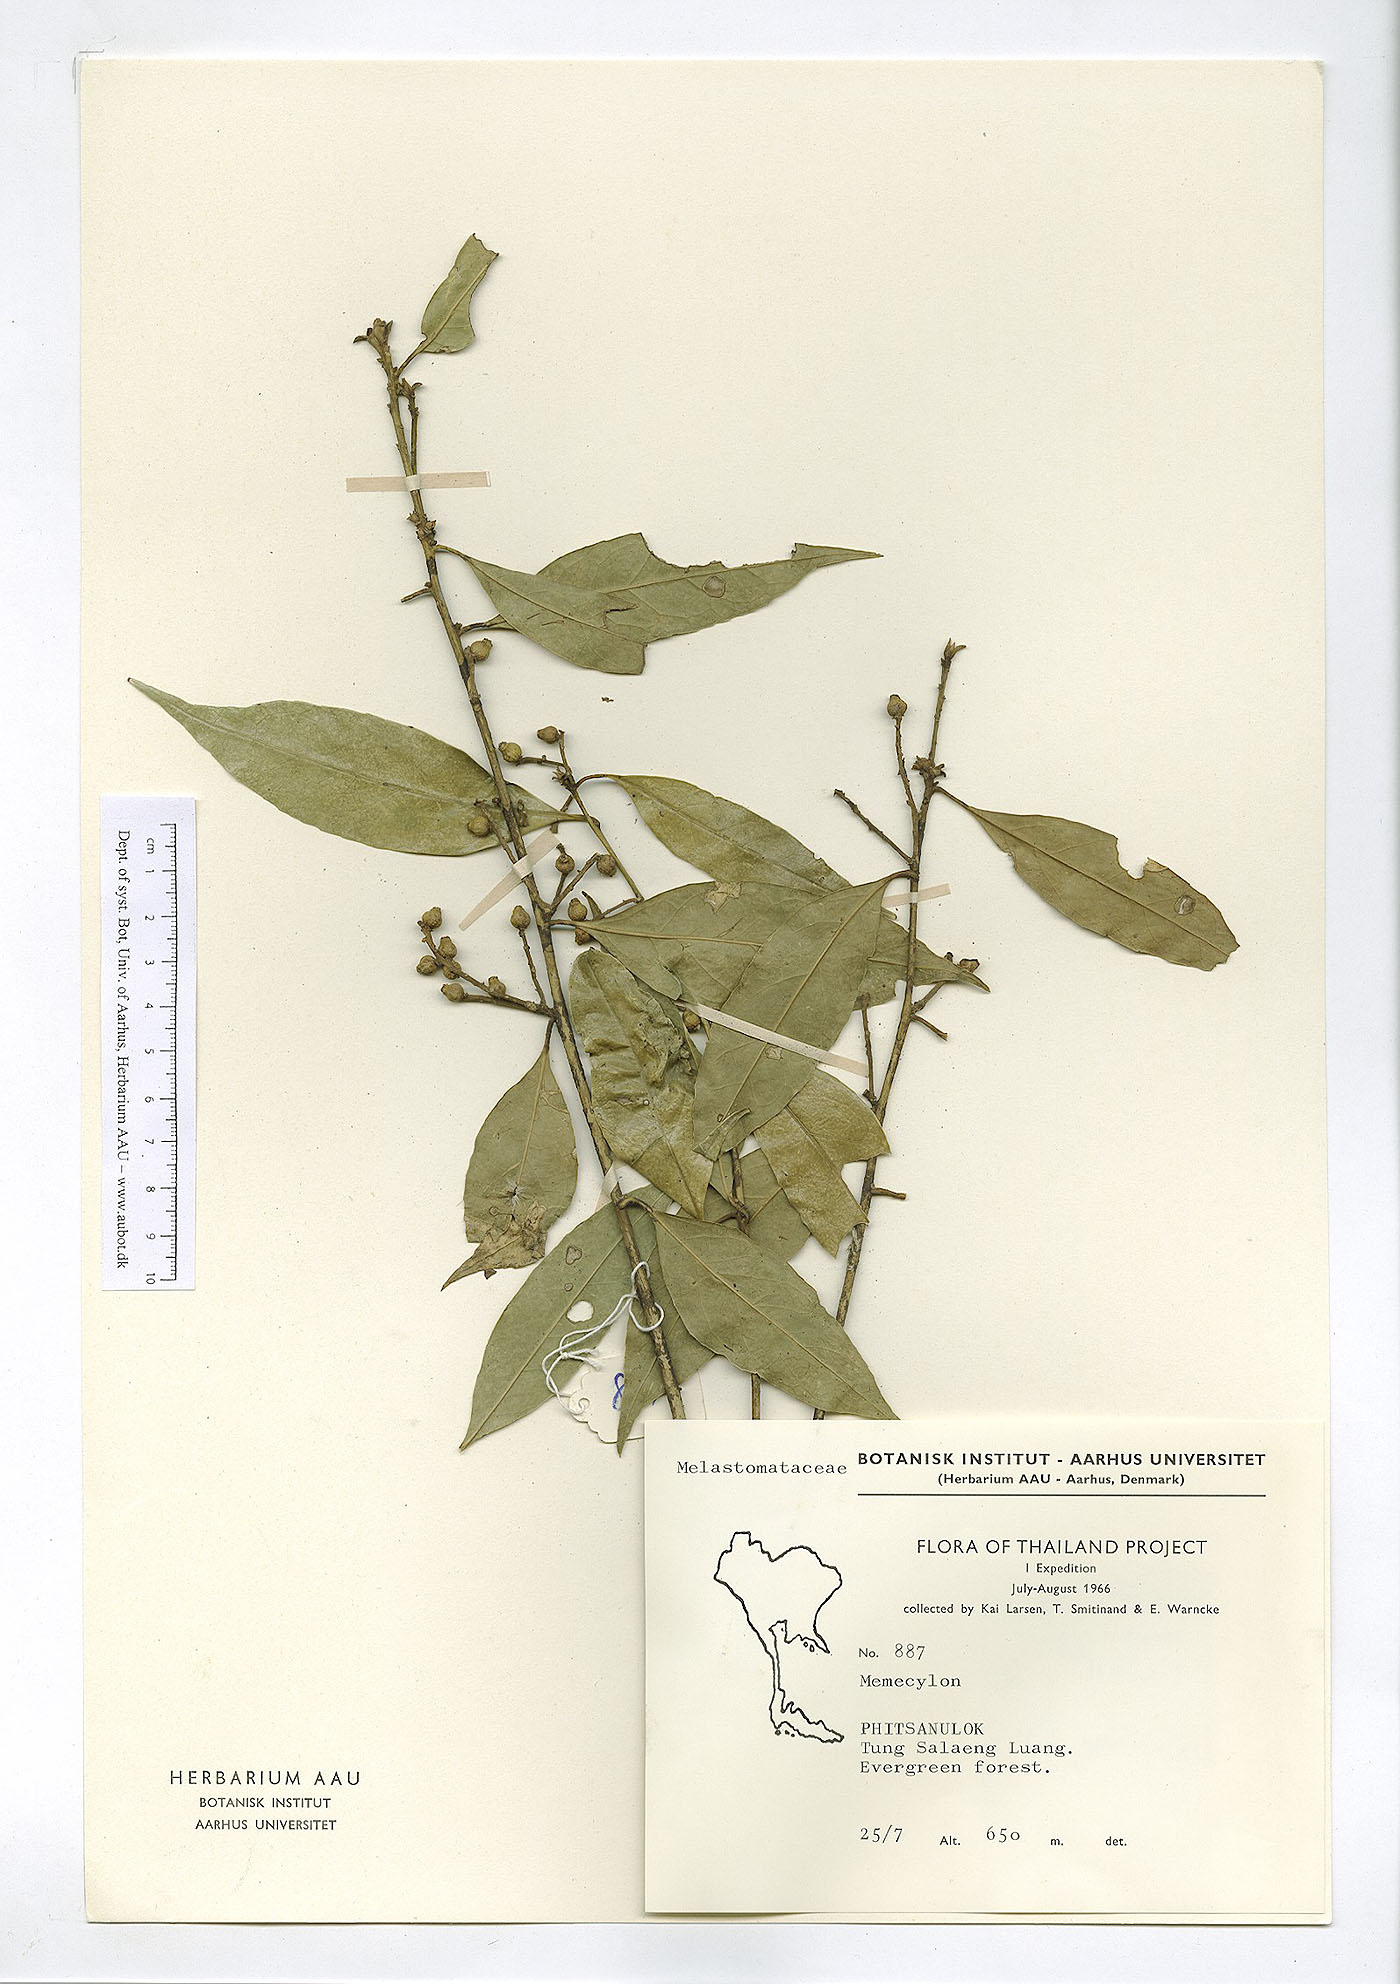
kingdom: Plantae
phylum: Tracheophyta
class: Magnoliopsida
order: Myrtales
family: Melastomataceae
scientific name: Melastomataceae
